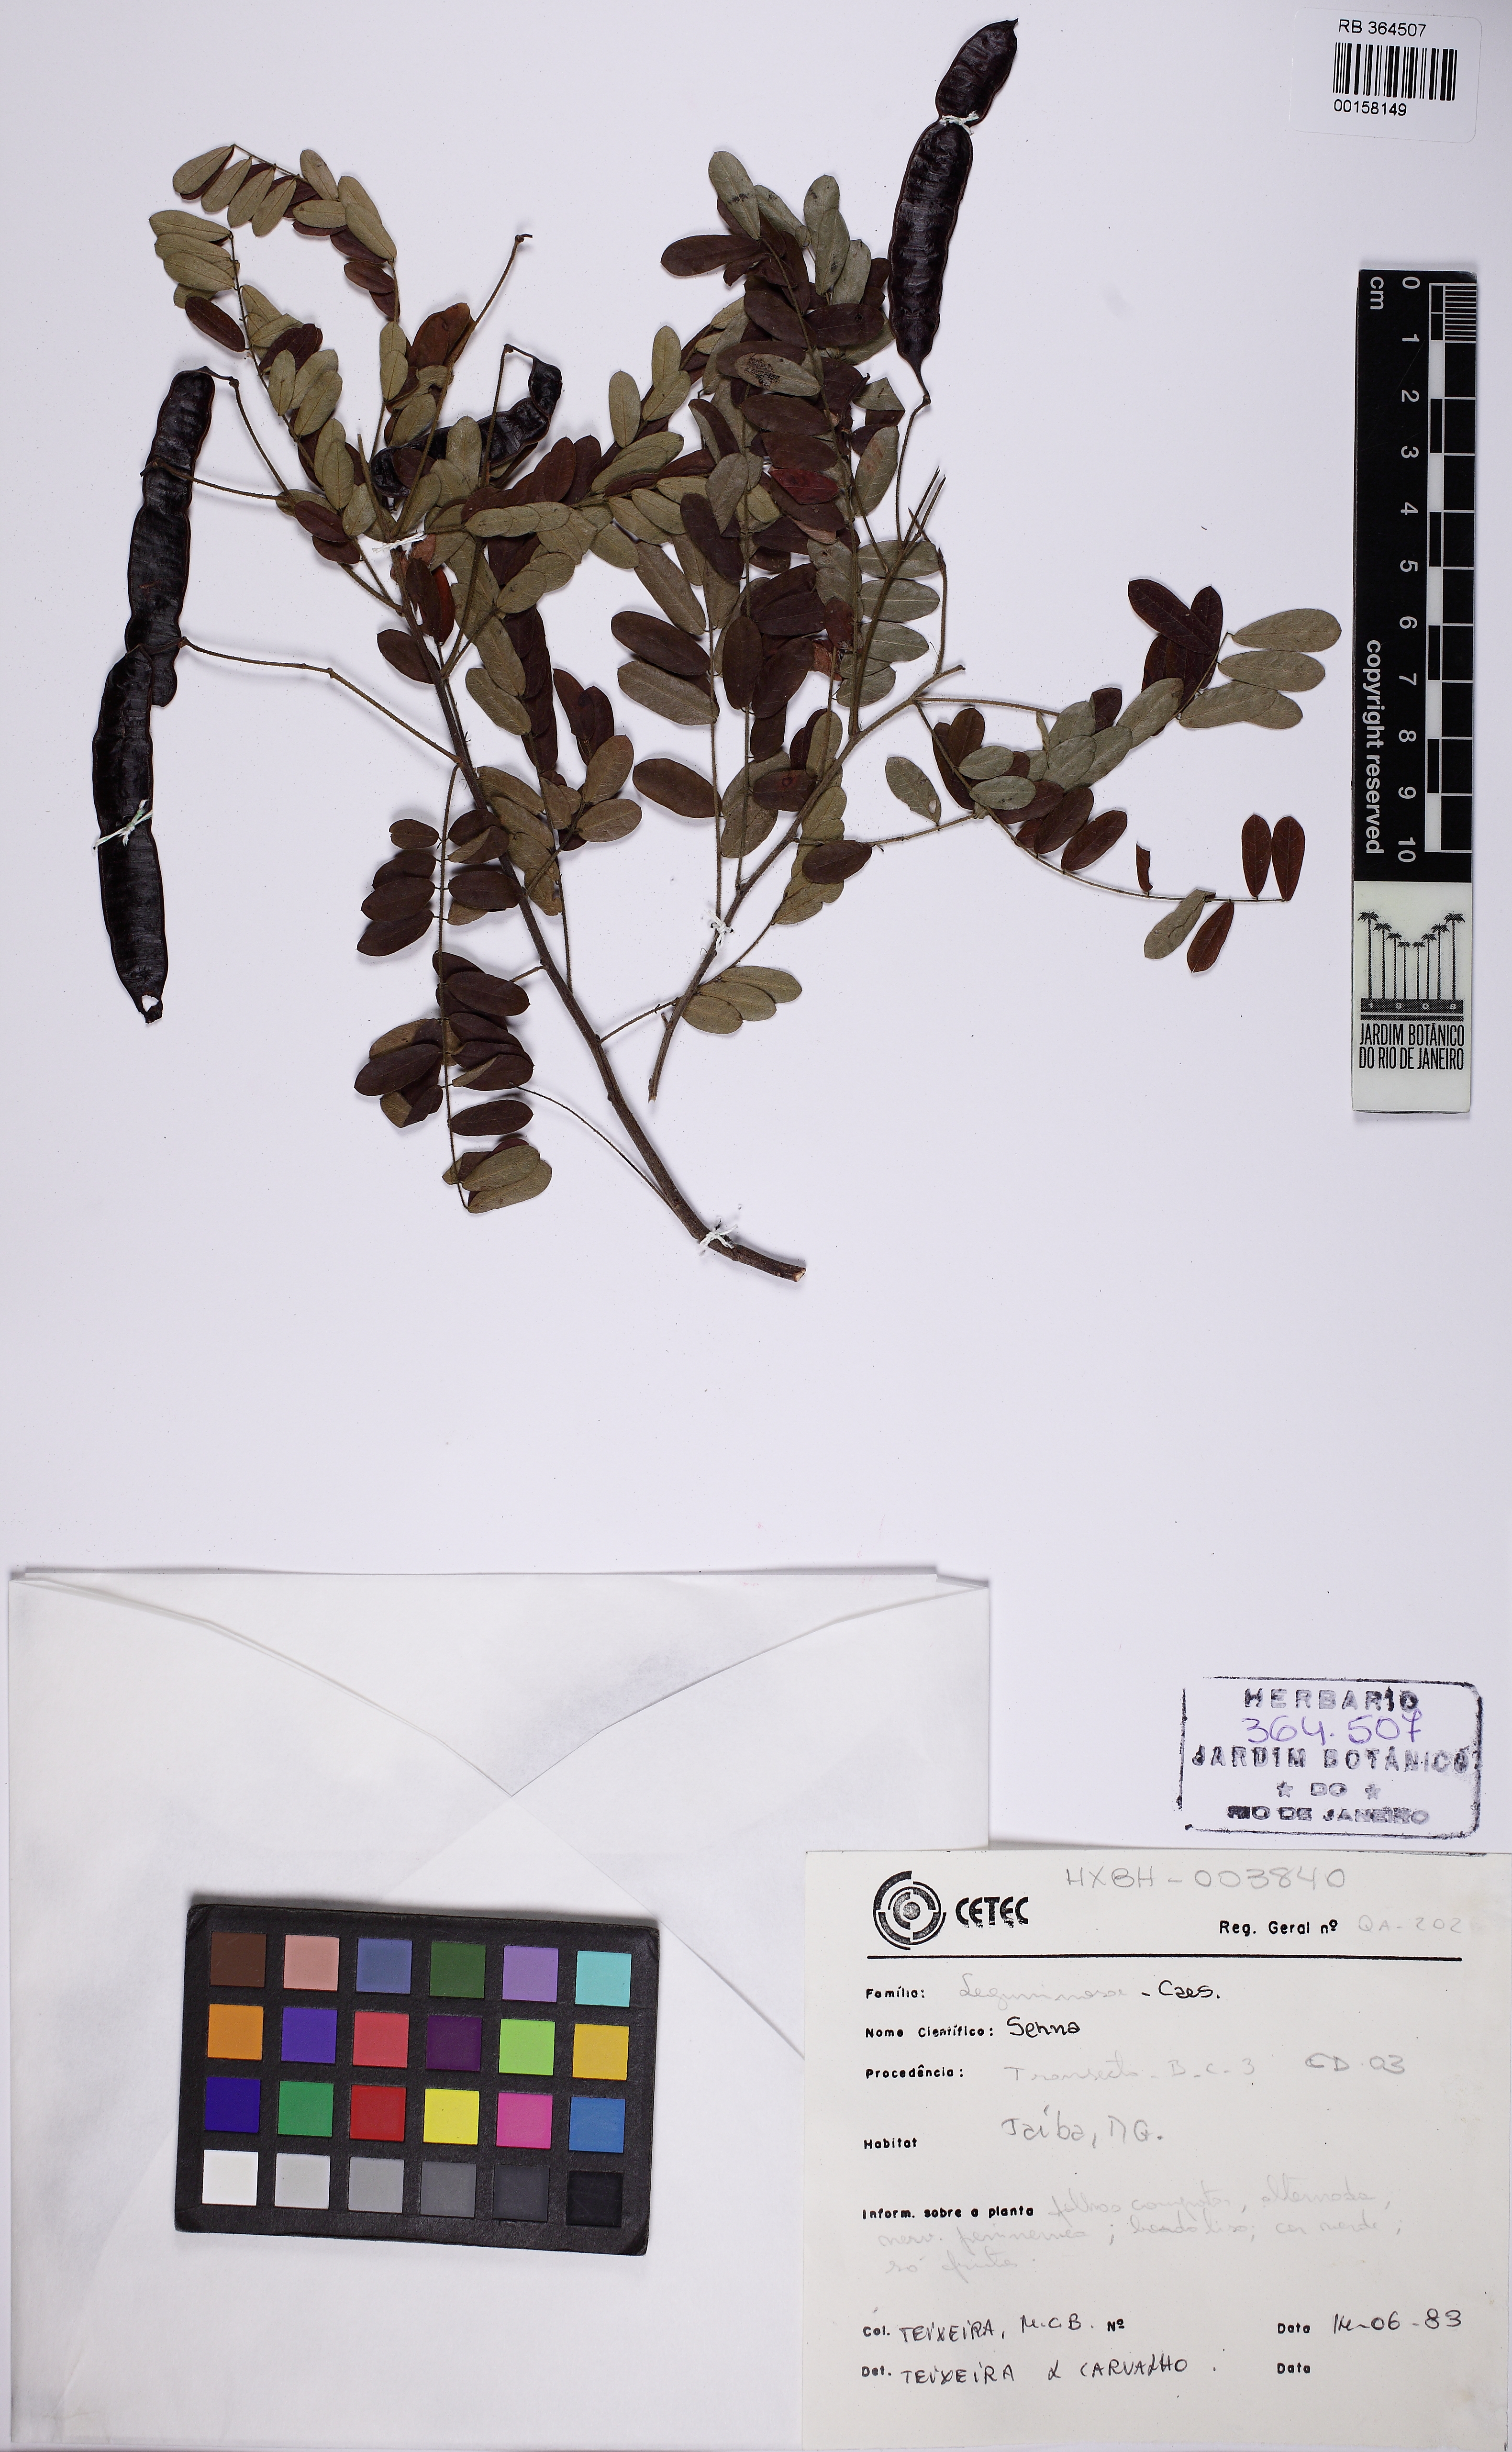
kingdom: Plantae
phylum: Tracheophyta
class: Magnoliopsida
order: Fabales
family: Fabaceae
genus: Senna
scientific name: Senna acuruensis
